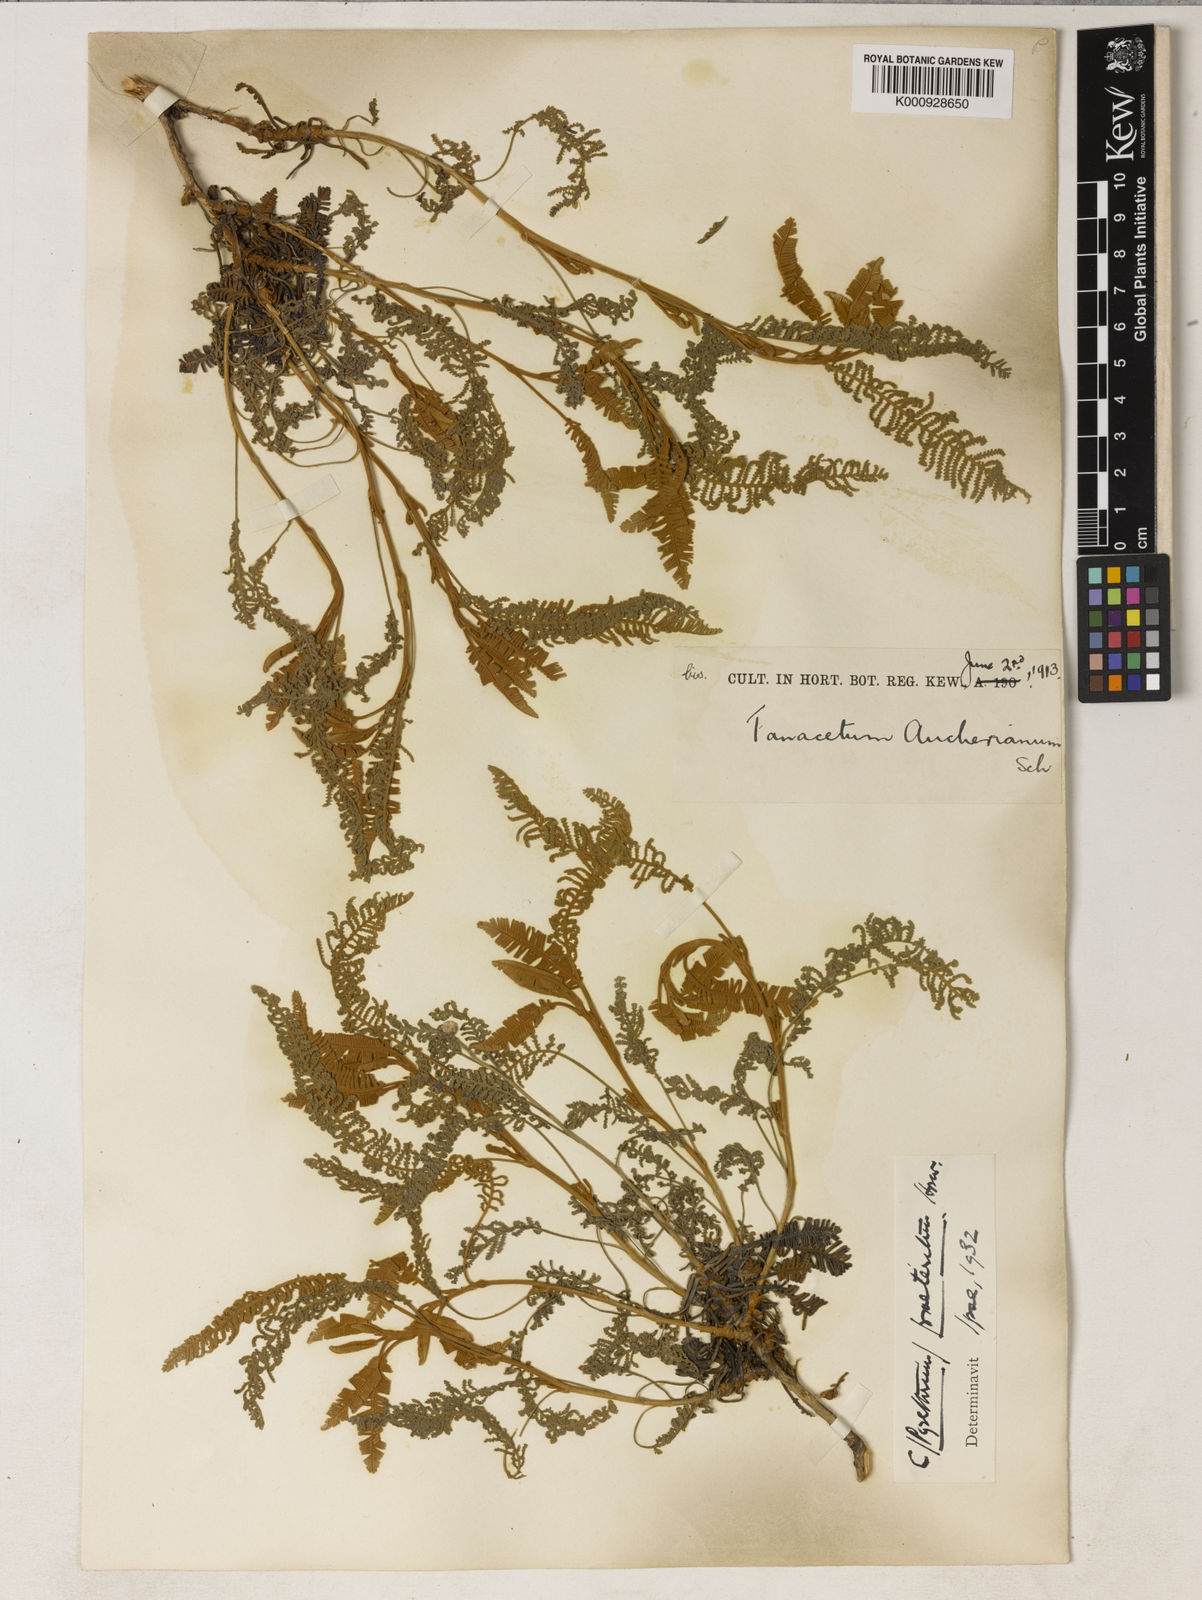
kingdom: Plantae
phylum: Tracheophyta
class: Magnoliopsida
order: Asterales
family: Asteraceae
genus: Tanacetum
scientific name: Tanacetum praeteritum
